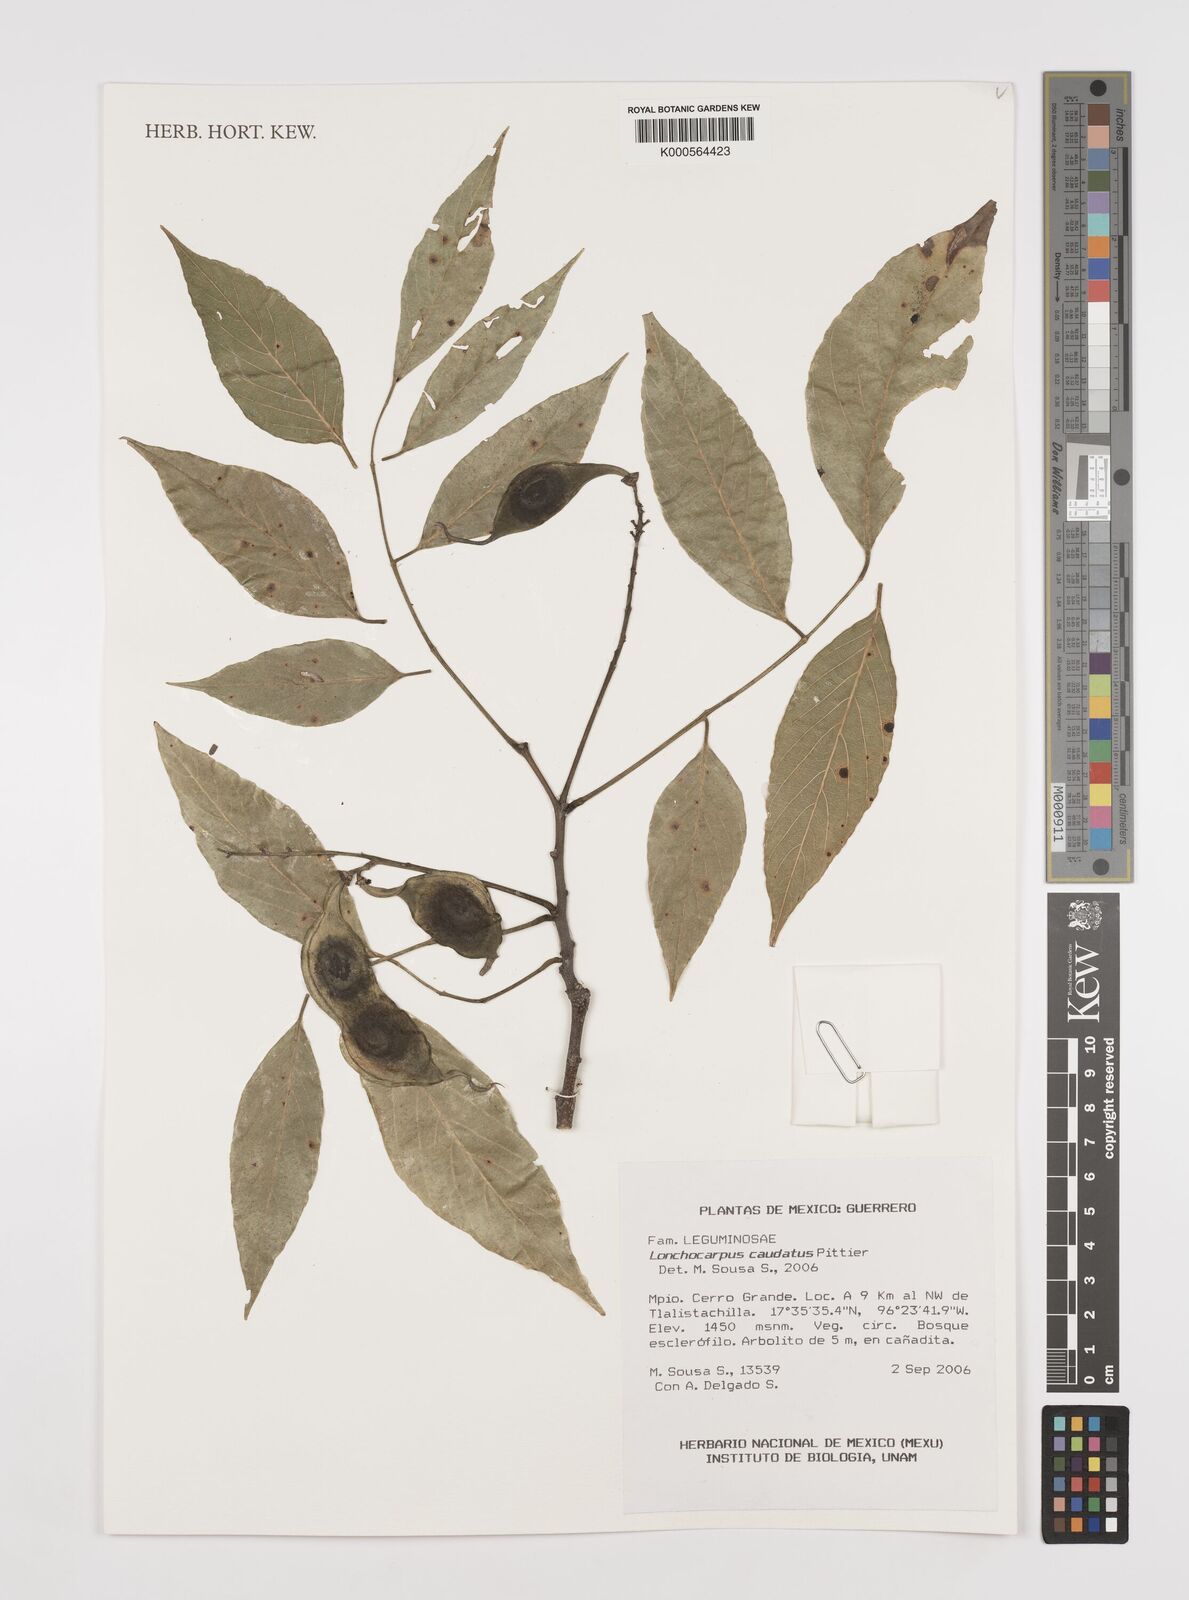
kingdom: Plantae
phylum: Tracheophyta
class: Magnoliopsida
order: Fabales
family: Fabaceae
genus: Lonchocarpus
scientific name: Lonchocarpus caudatus
